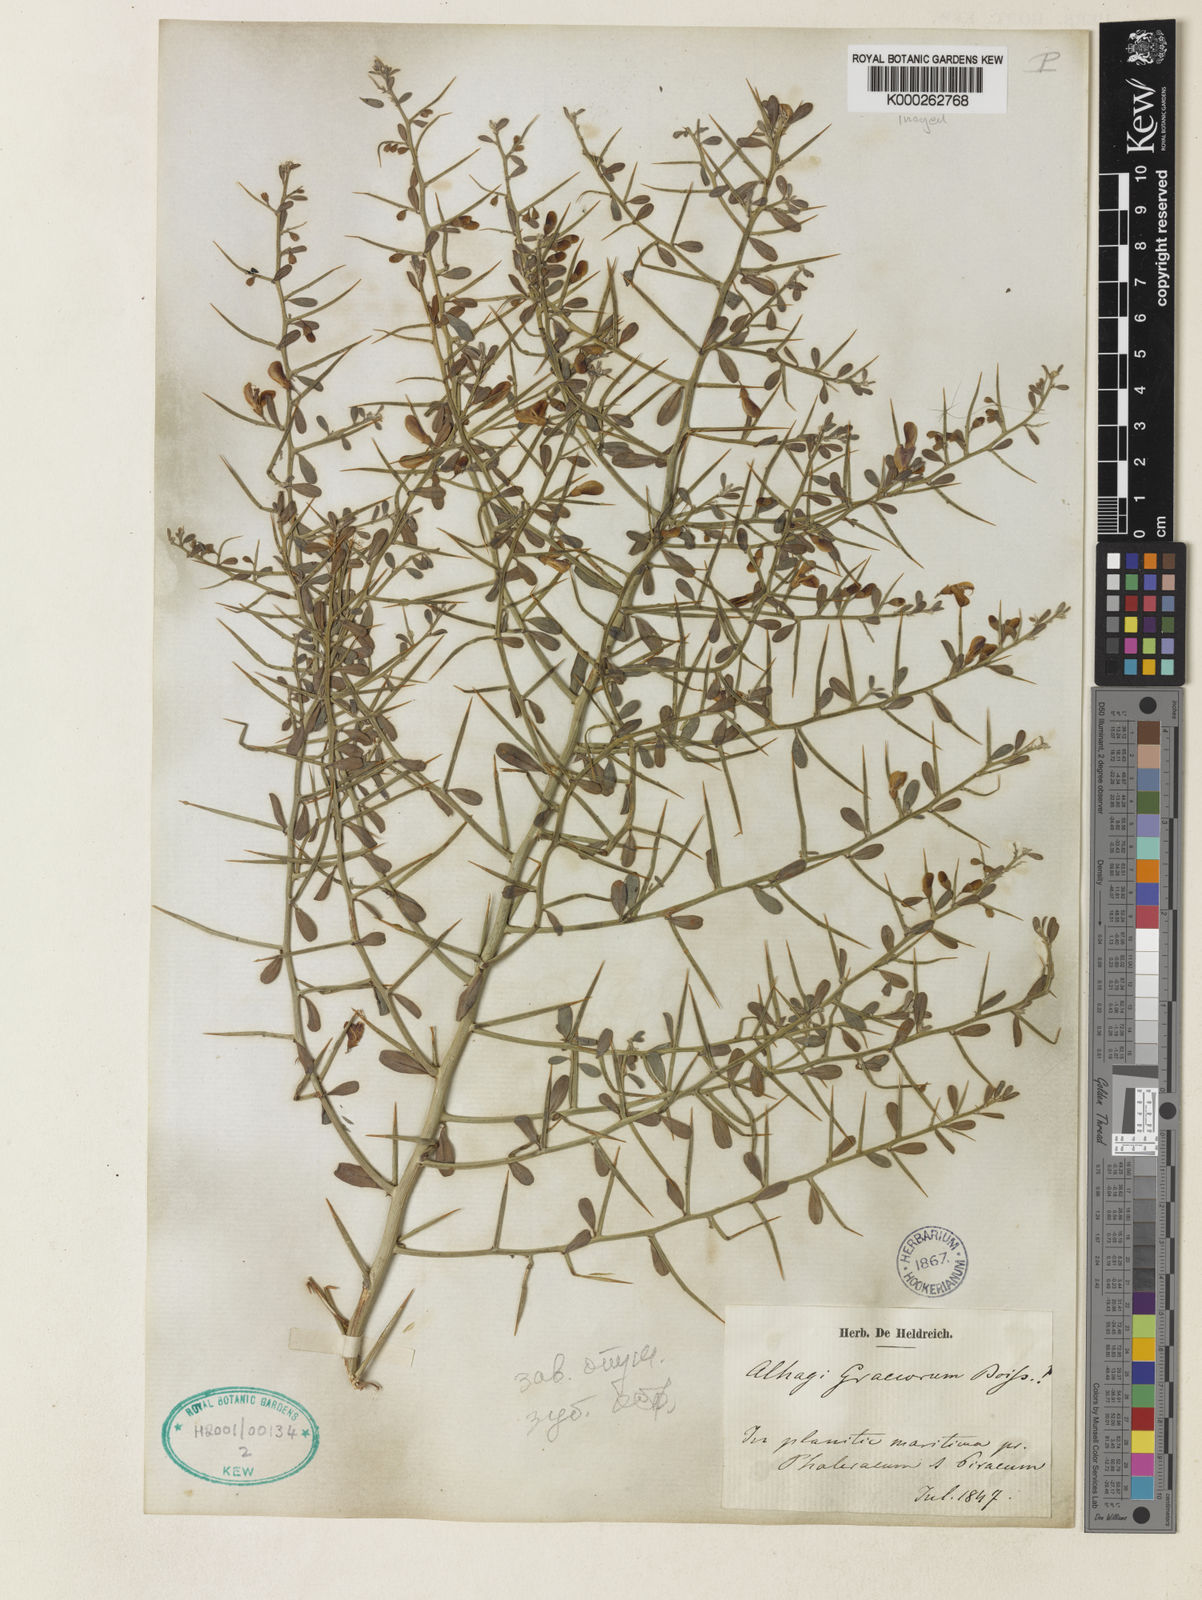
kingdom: Plantae
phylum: Tracheophyta
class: Magnoliopsida
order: Fabales
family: Fabaceae
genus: Alhagi
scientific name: Alhagi graecorum
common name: Persian mannaplant
